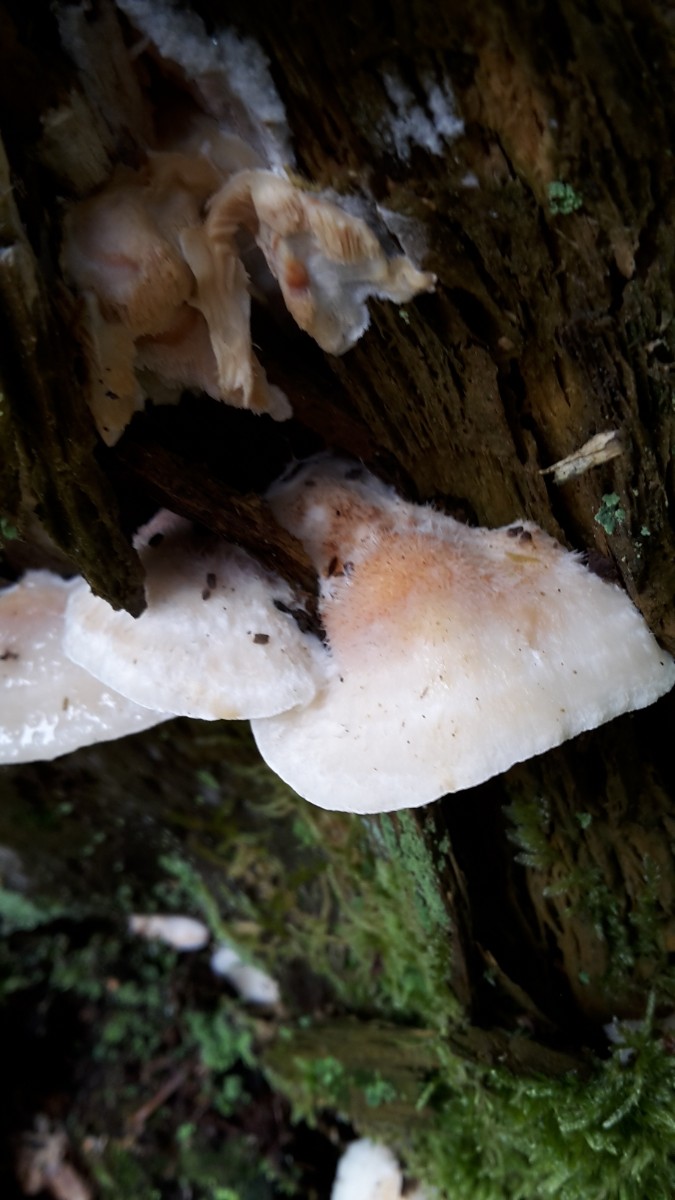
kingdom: Fungi
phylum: Basidiomycota
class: Agaricomycetes
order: Polyporales
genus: Fuscopostia
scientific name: Fuscopostia fragilis
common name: brunende kødporesvamp
